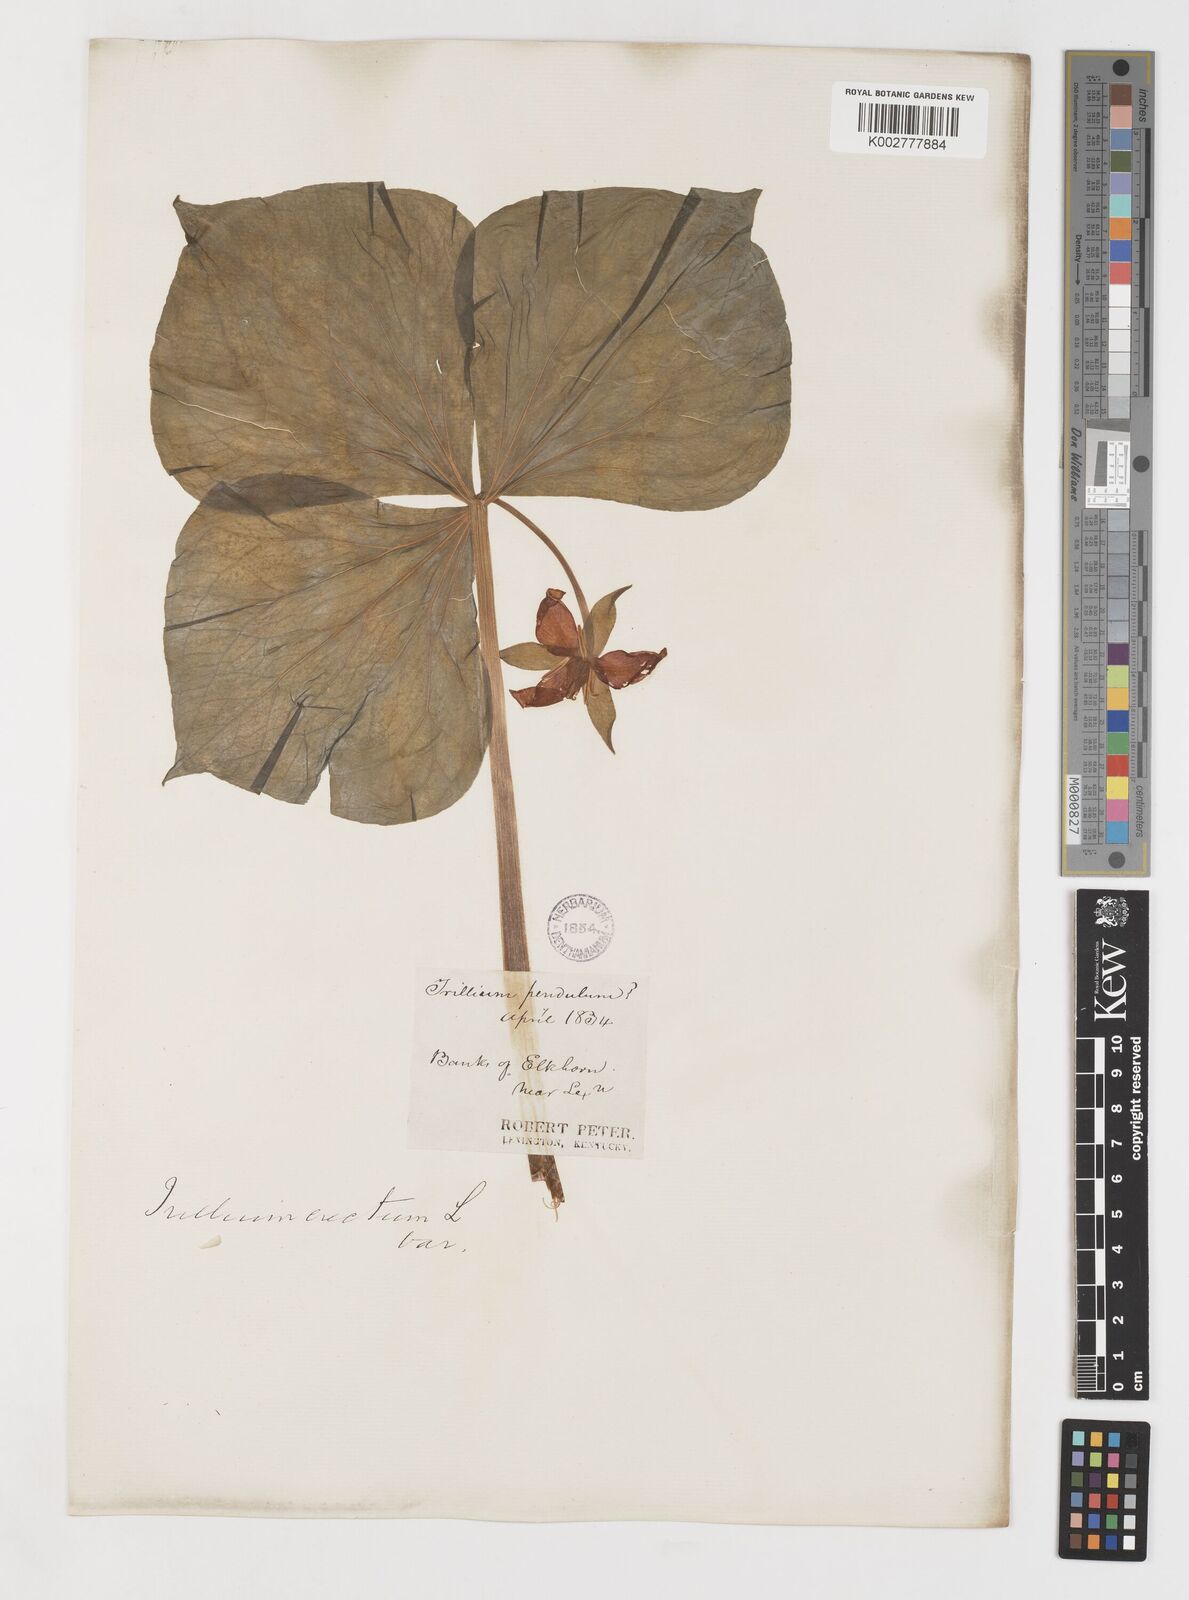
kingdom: Plantae
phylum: Tracheophyta
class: Liliopsida
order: Liliales
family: Melanthiaceae
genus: Trillium
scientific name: Trillium erectum
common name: Purple trillium
